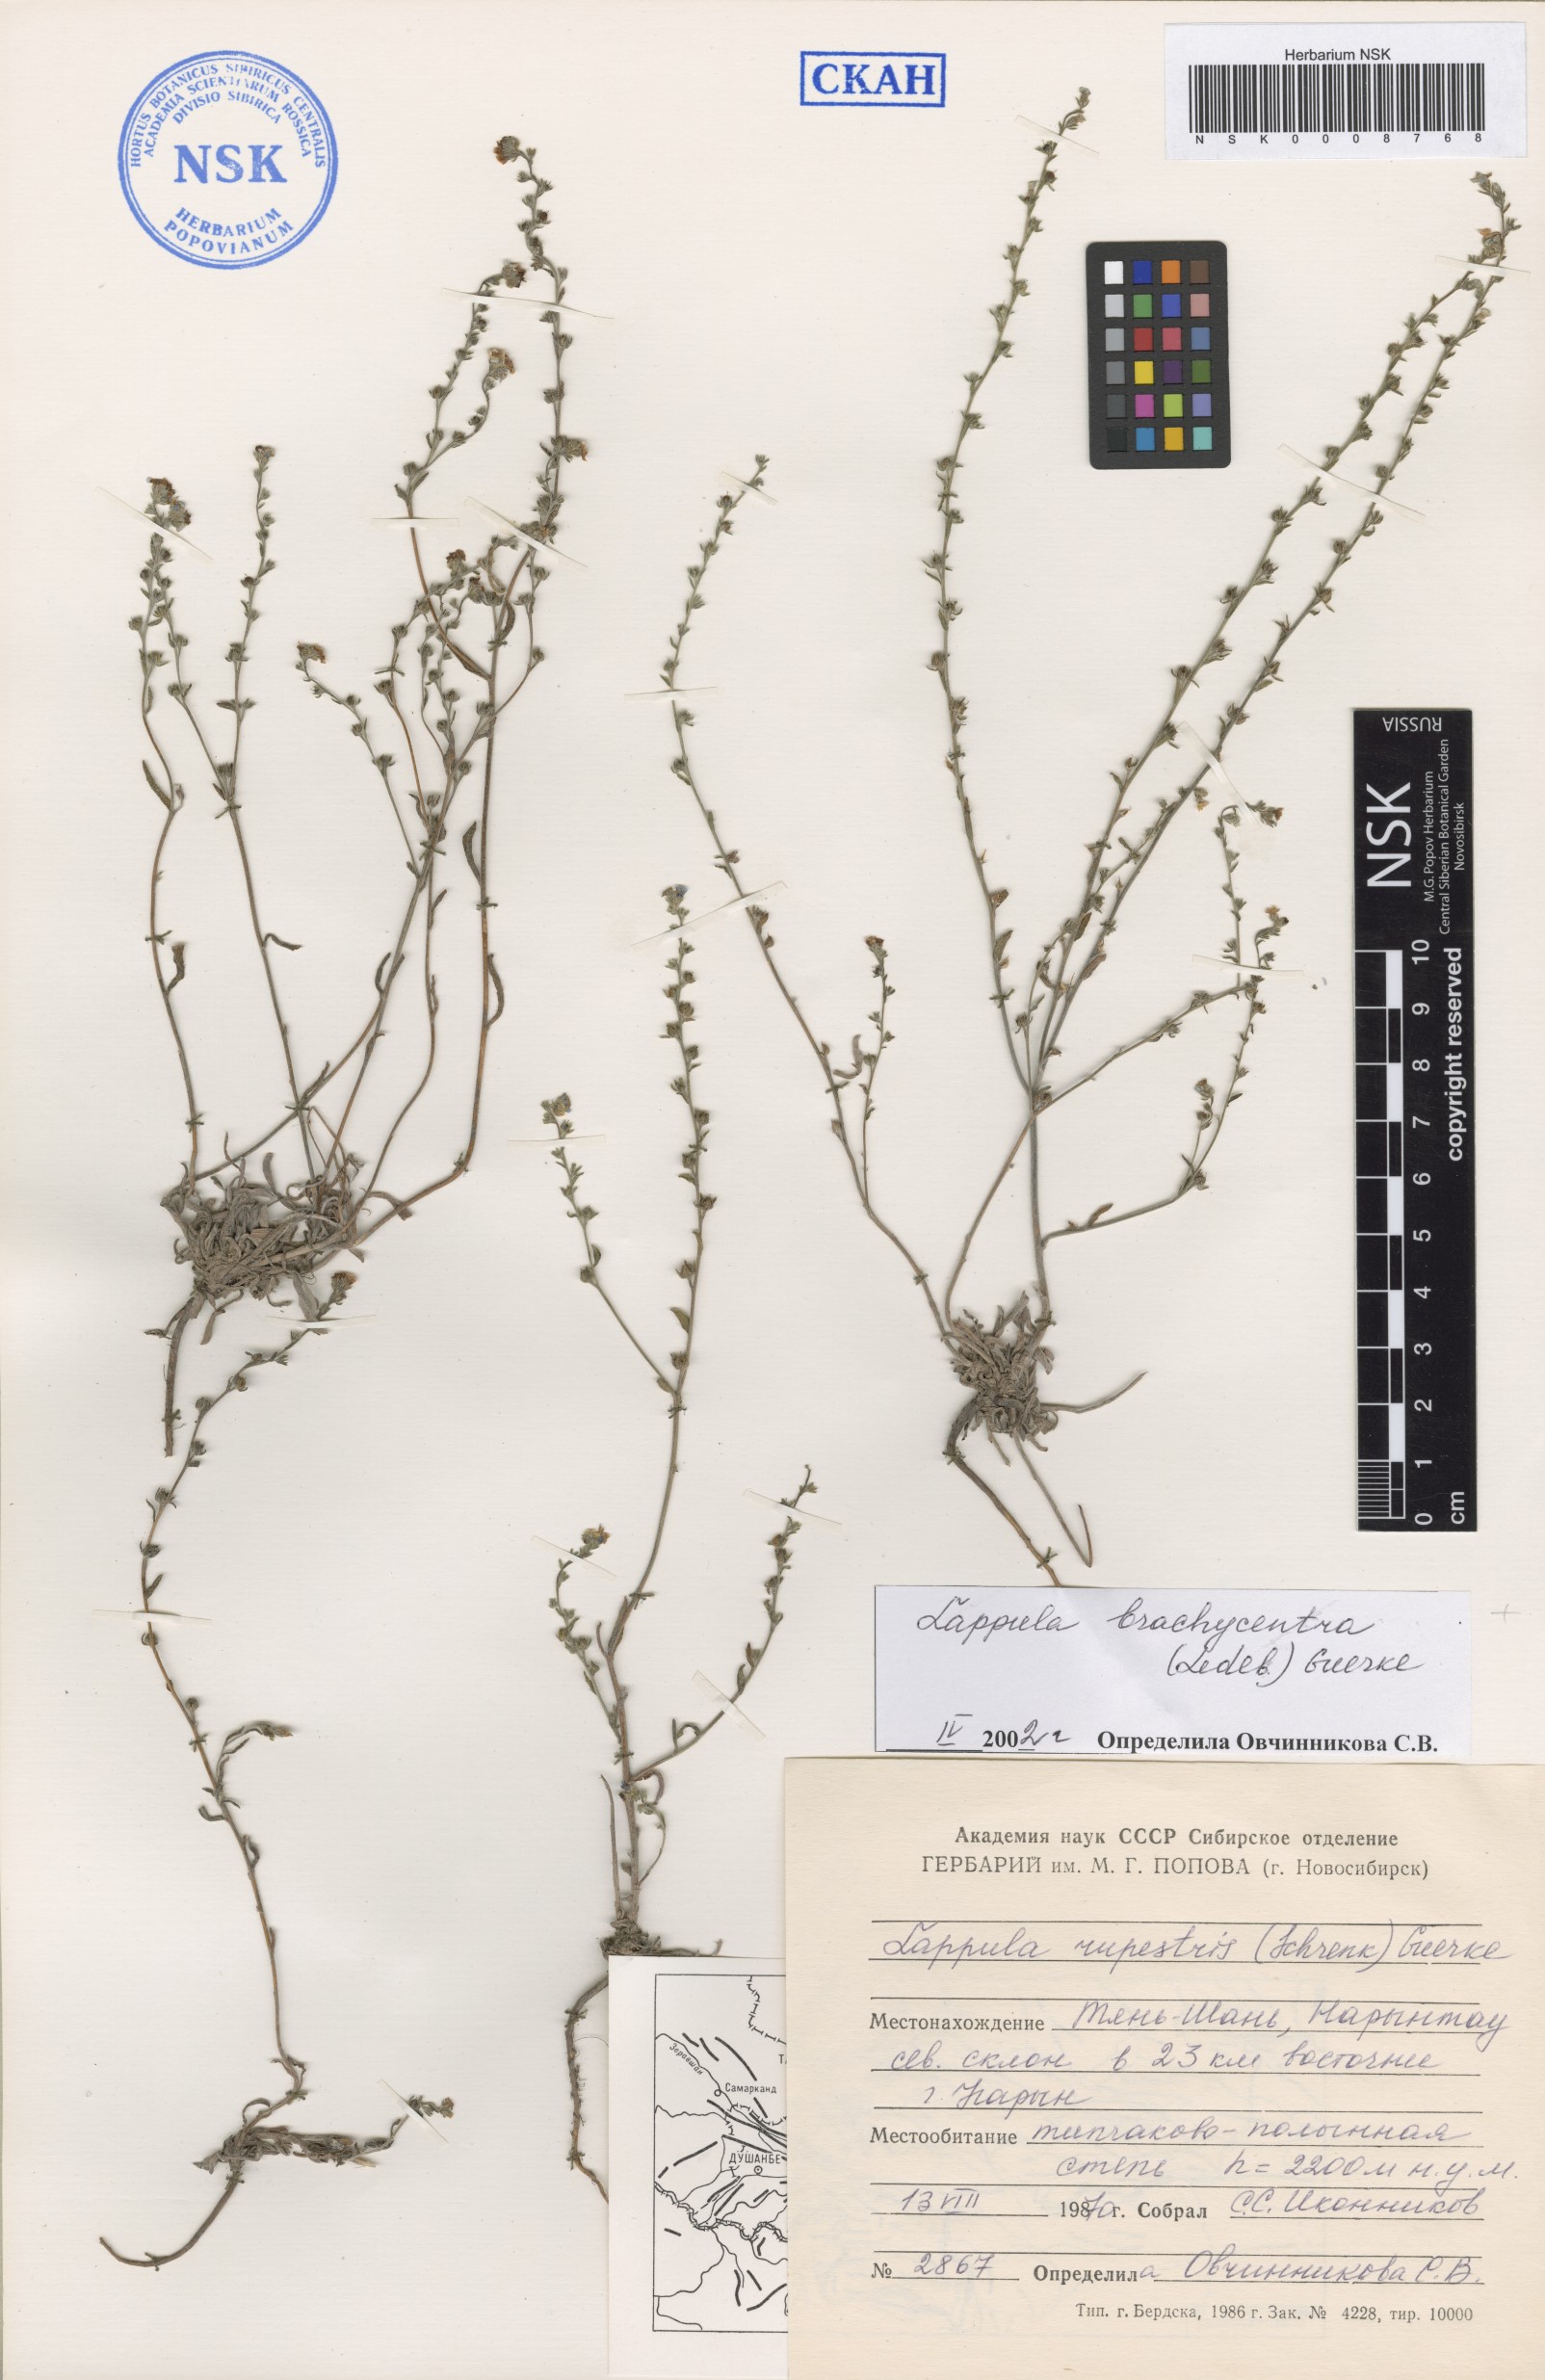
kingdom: Plantae
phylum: Tracheophyta
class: Magnoliopsida
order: Boraginales
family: Boraginaceae
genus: Lappula
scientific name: Lappula brachycentra
